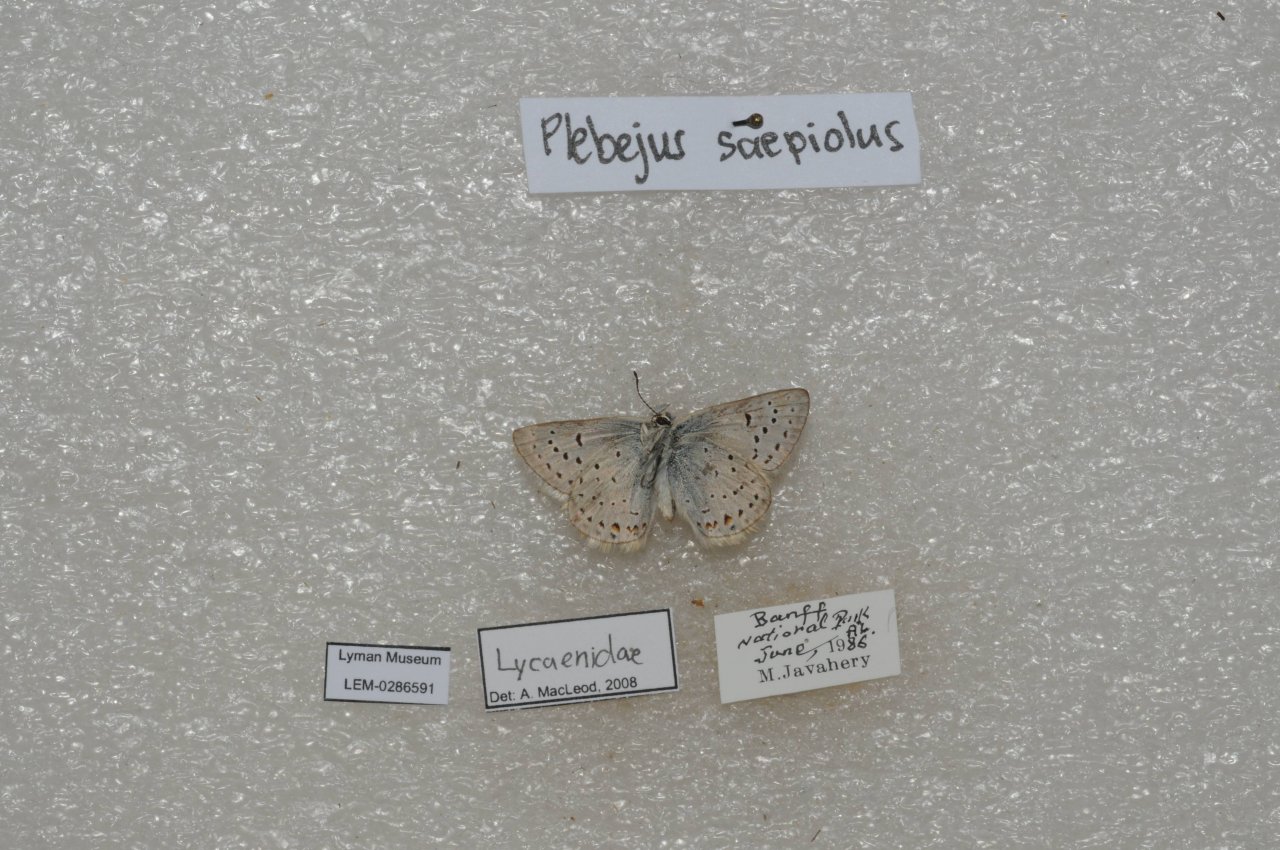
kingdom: Animalia
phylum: Arthropoda
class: Insecta
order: Lepidoptera
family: Lycaenidae
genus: Plebejus
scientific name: Plebejus saepiolus
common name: Greenish Blue
